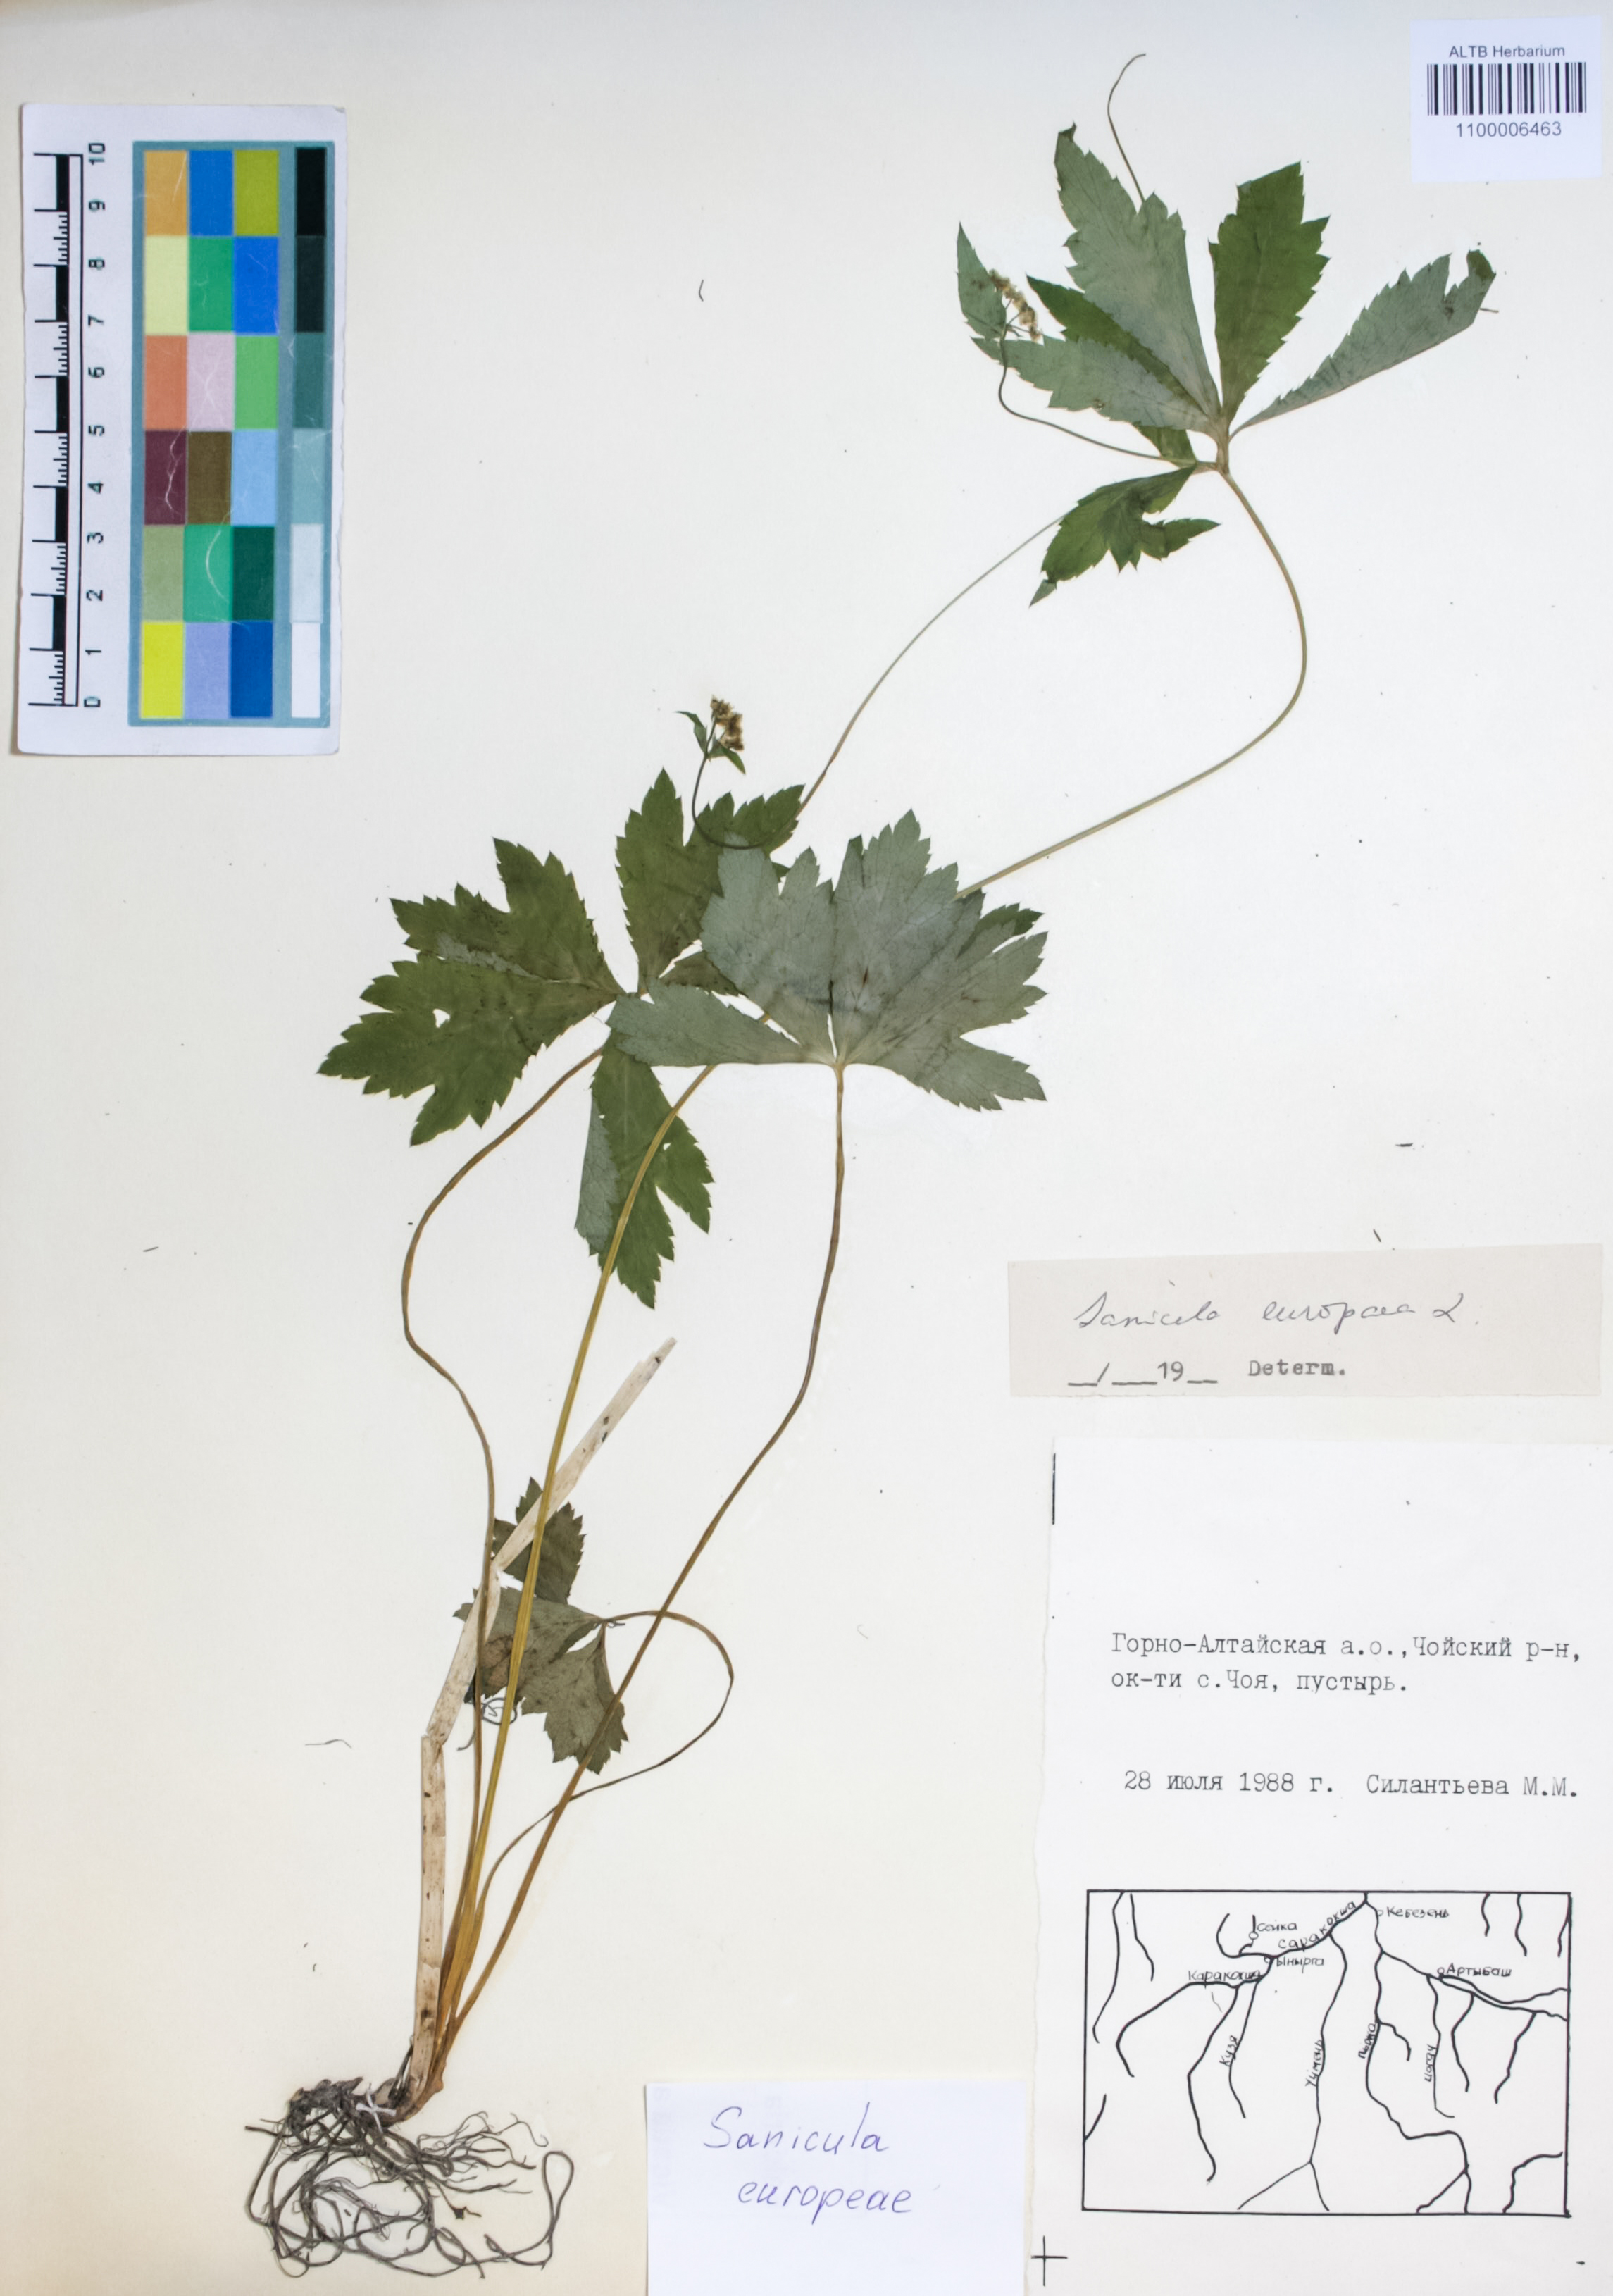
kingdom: Plantae
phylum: Tracheophyta
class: Magnoliopsida
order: Apiales
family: Apiaceae
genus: Sanicula
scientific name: Sanicula europaea
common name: Sanicle
